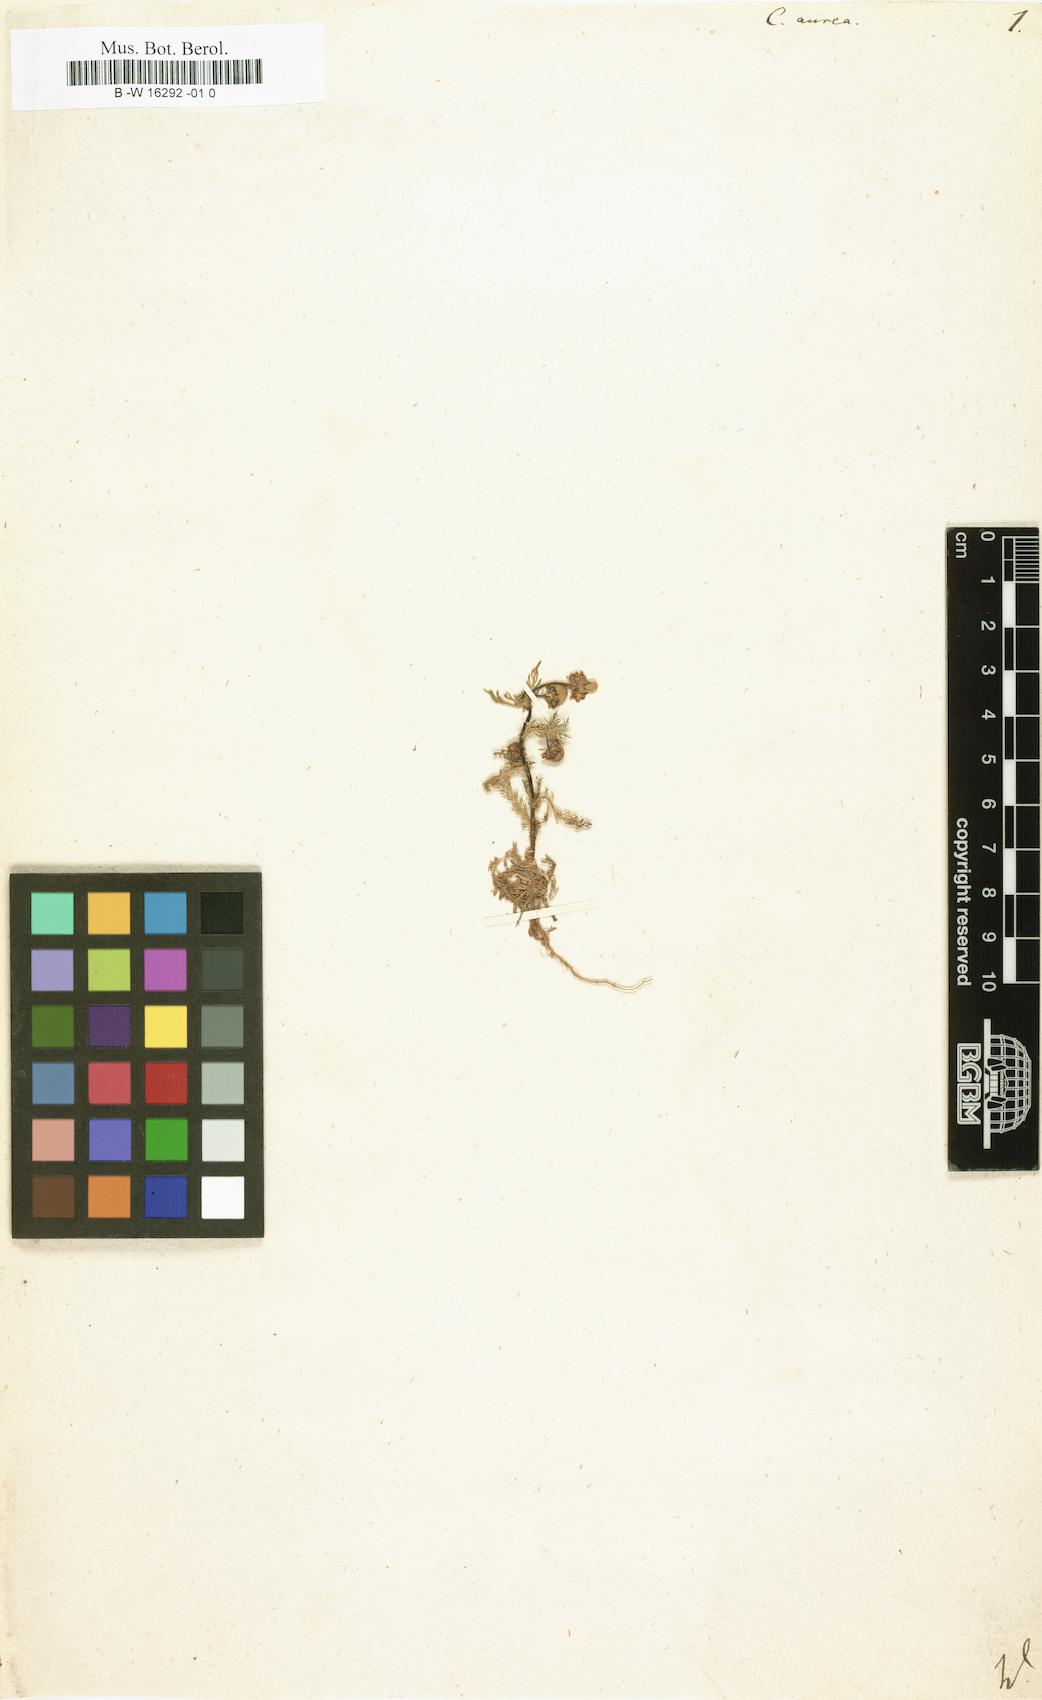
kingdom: Plantae
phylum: Tracheophyta
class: Magnoliopsida
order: Asterales
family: Asteraceae
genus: Cotula
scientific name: Cotula aurea
